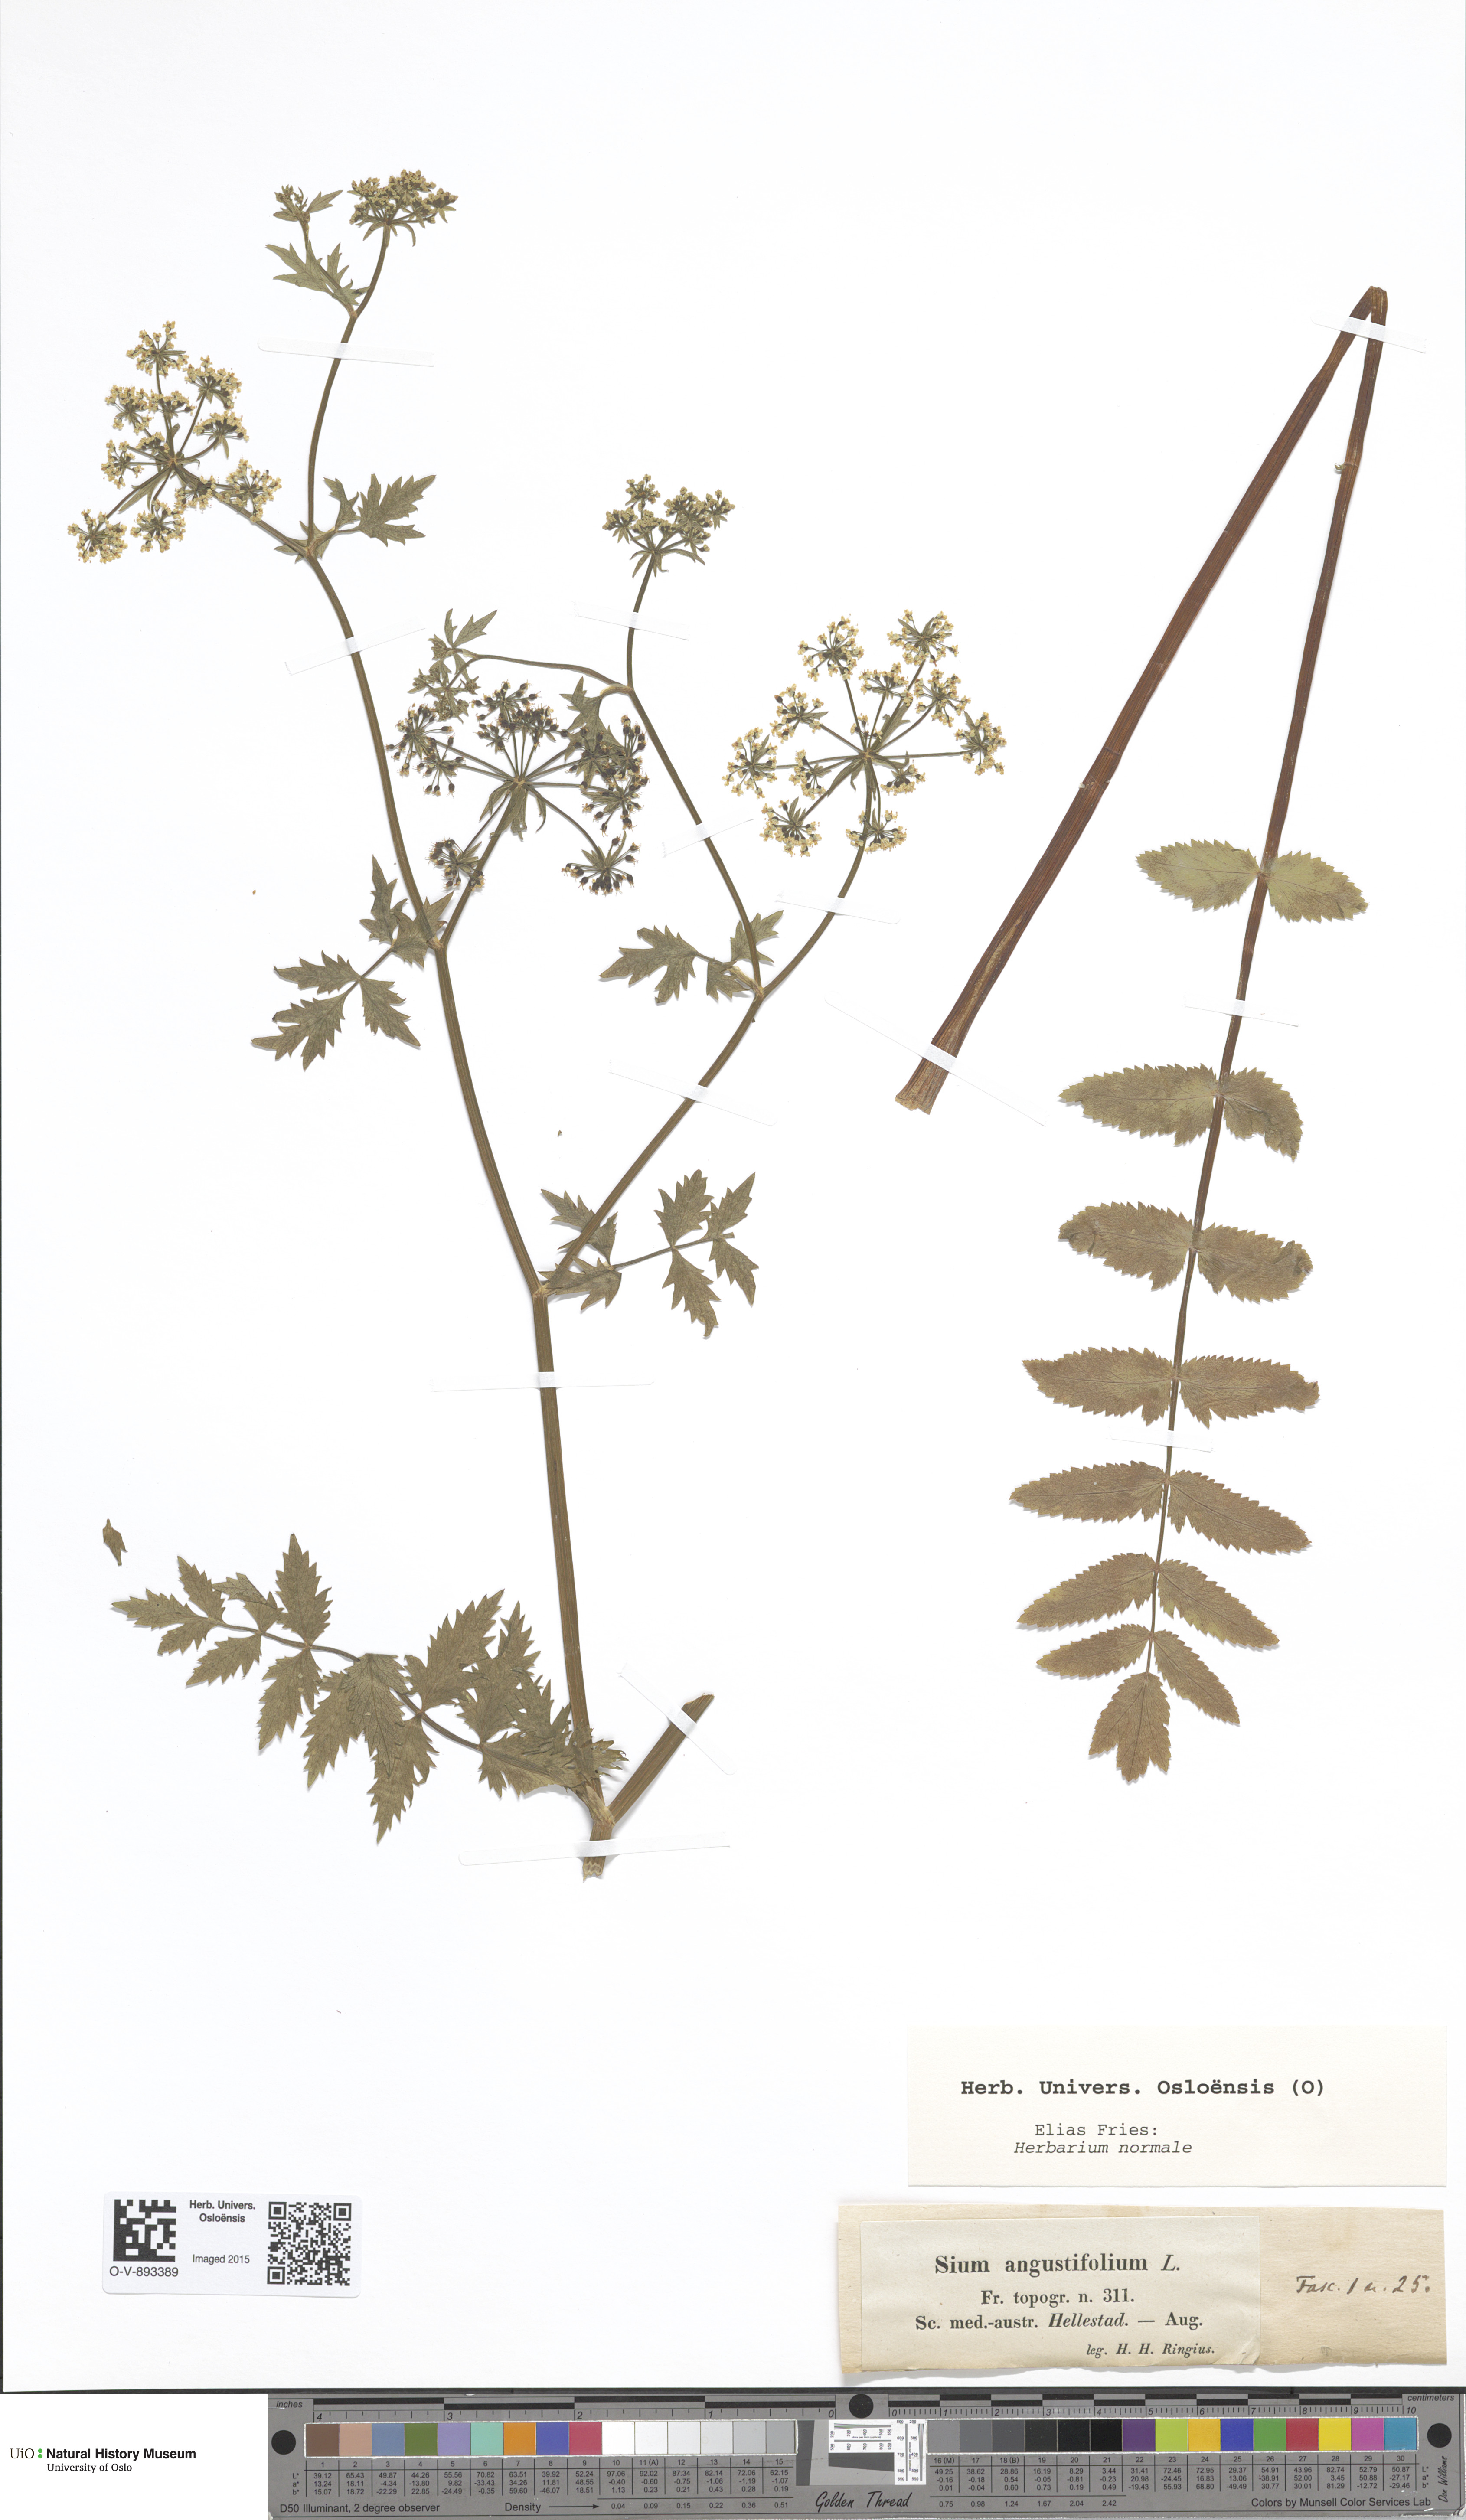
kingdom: Plantae
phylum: Tracheophyta
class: Magnoliopsida
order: Apiales
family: Apiaceae
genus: Berula
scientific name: Berula erecta
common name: Lesser water-parsnip
